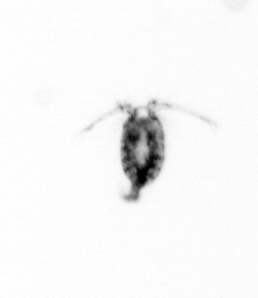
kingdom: Animalia
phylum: Arthropoda
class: Copepoda
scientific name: Copepoda
